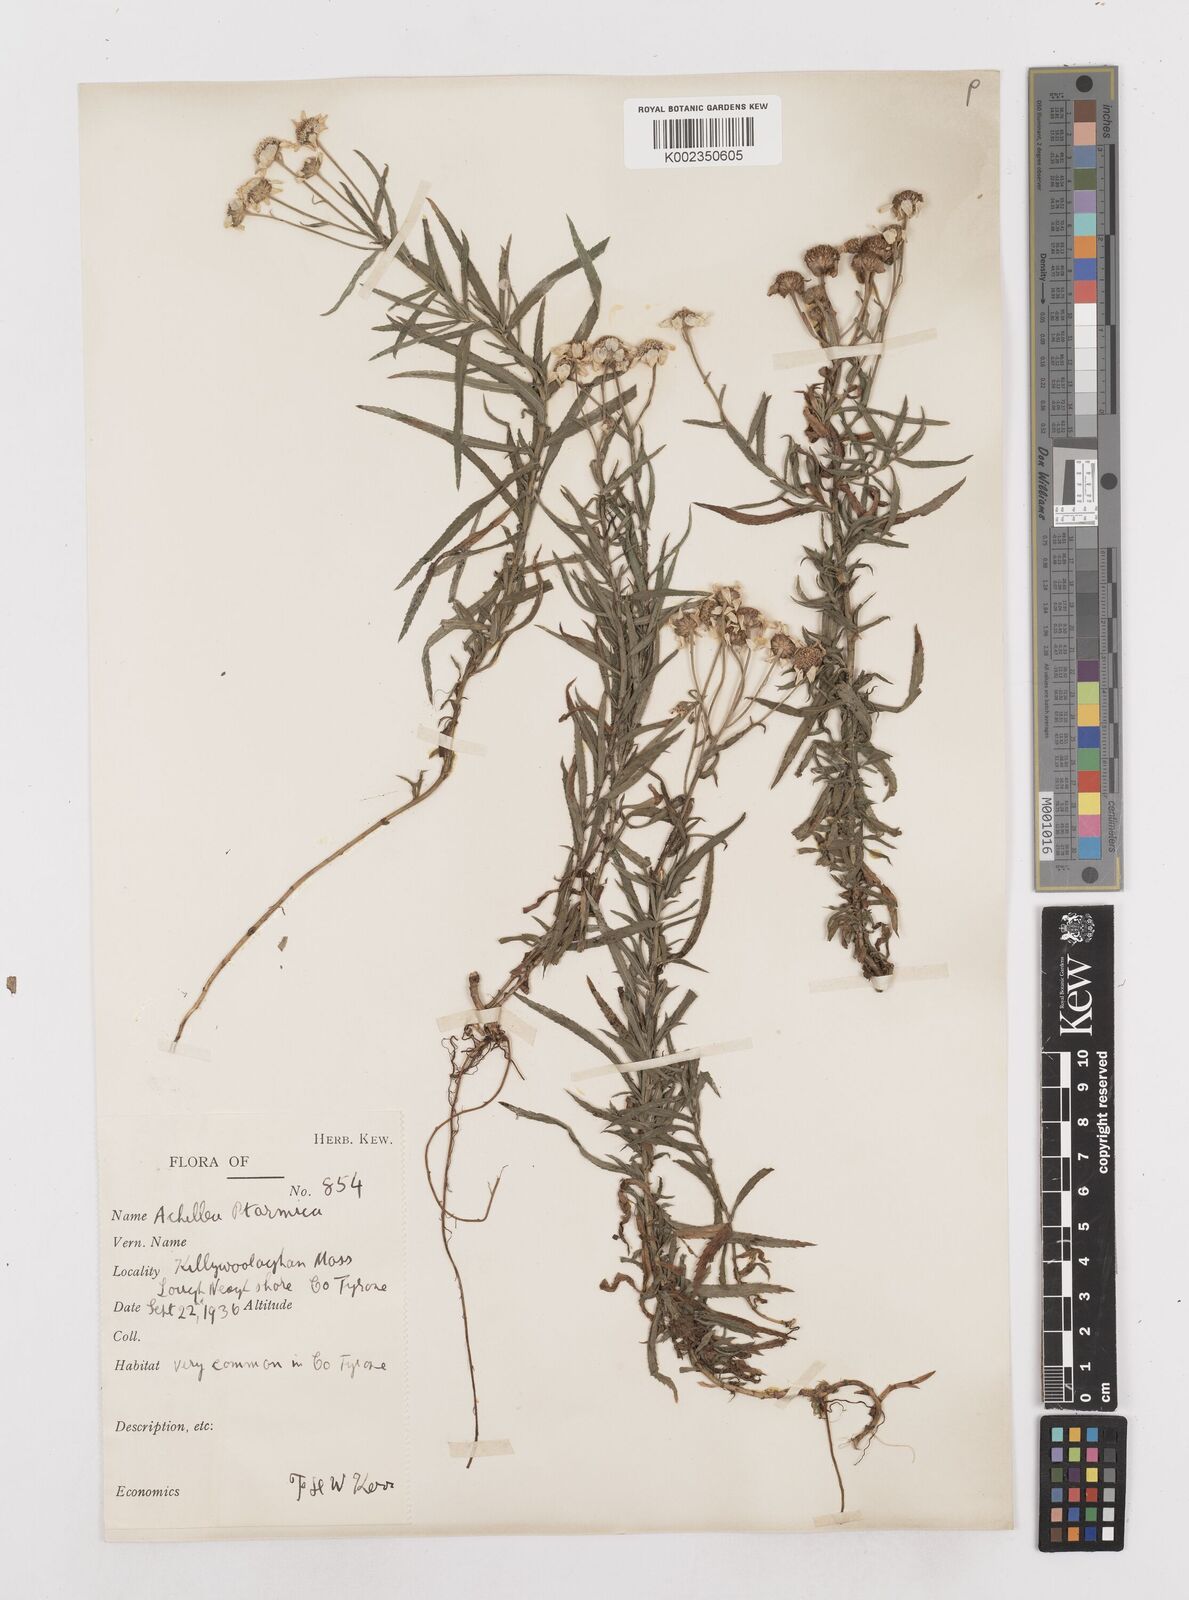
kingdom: Plantae
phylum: Tracheophyta
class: Magnoliopsida
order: Asterales
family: Asteraceae
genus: Achillea
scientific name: Achillea ptarmica
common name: Sneezeweed
